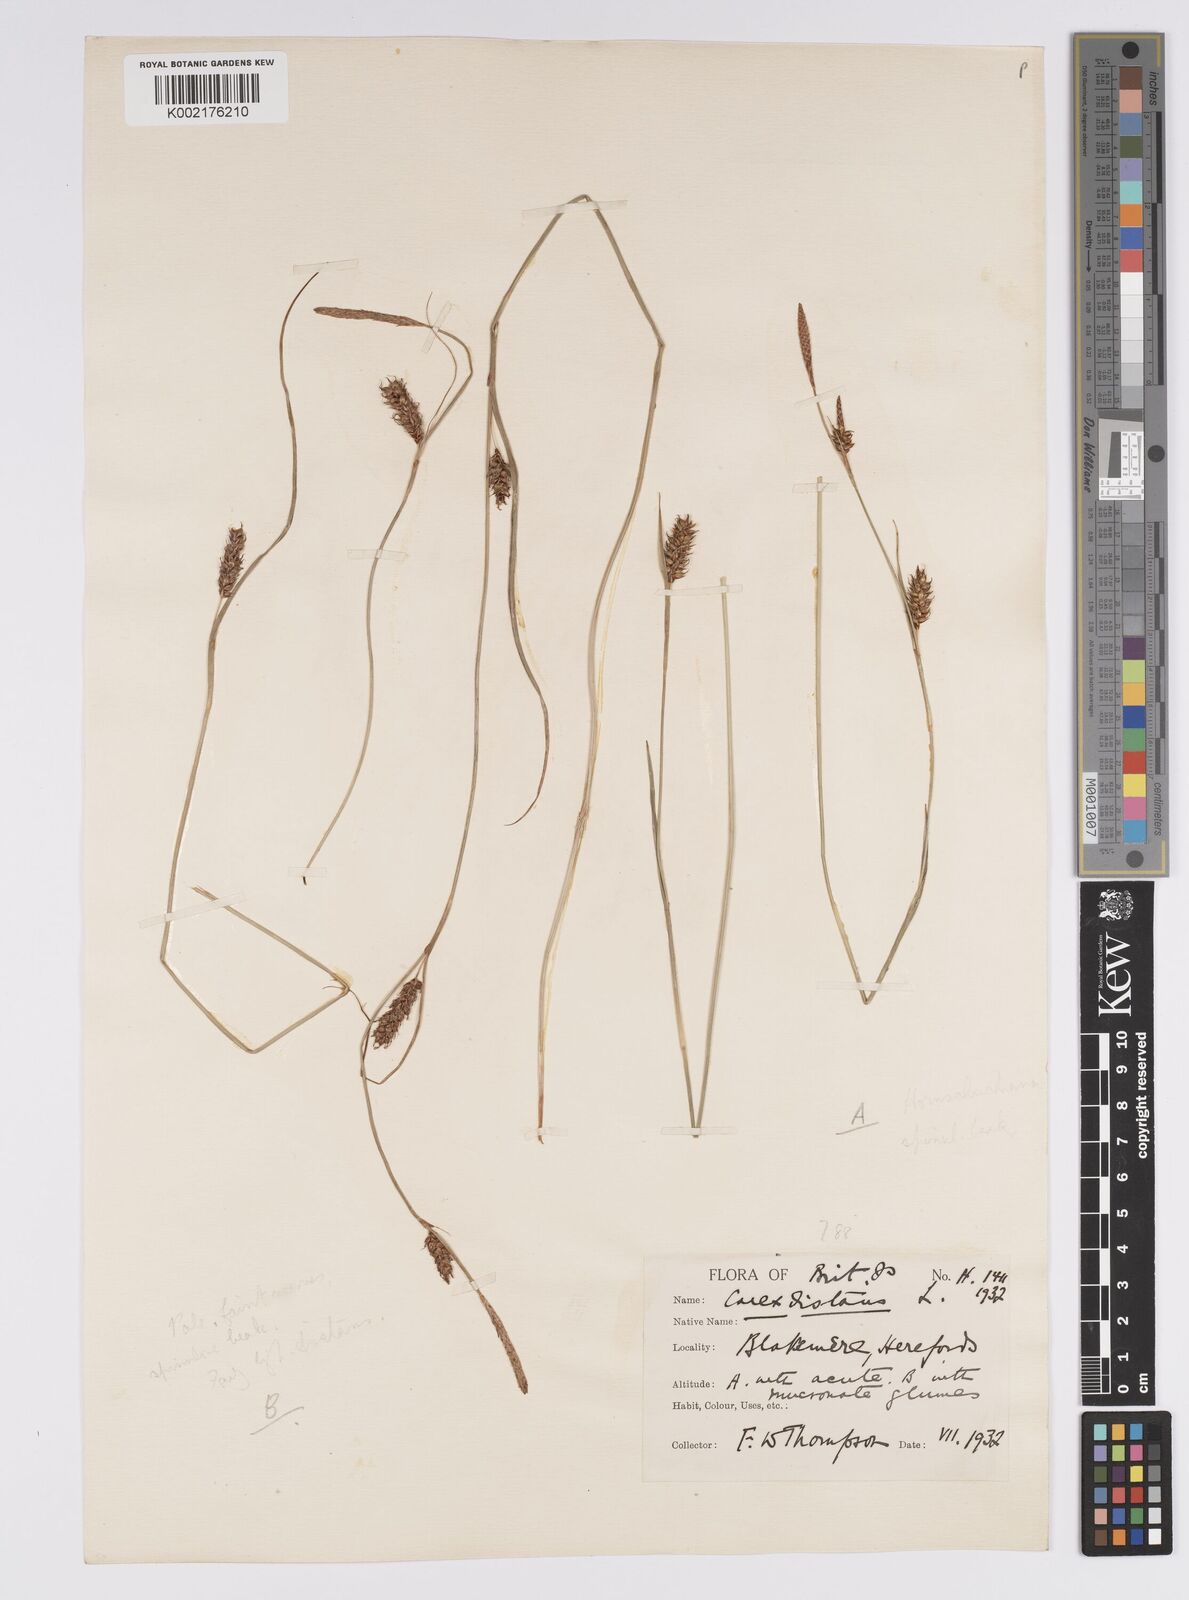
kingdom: Plantae
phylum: Tracheophyta
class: Liliopsida
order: Poales
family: Cyperaceae
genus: Carex
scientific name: Carex distans
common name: Distant sedge
